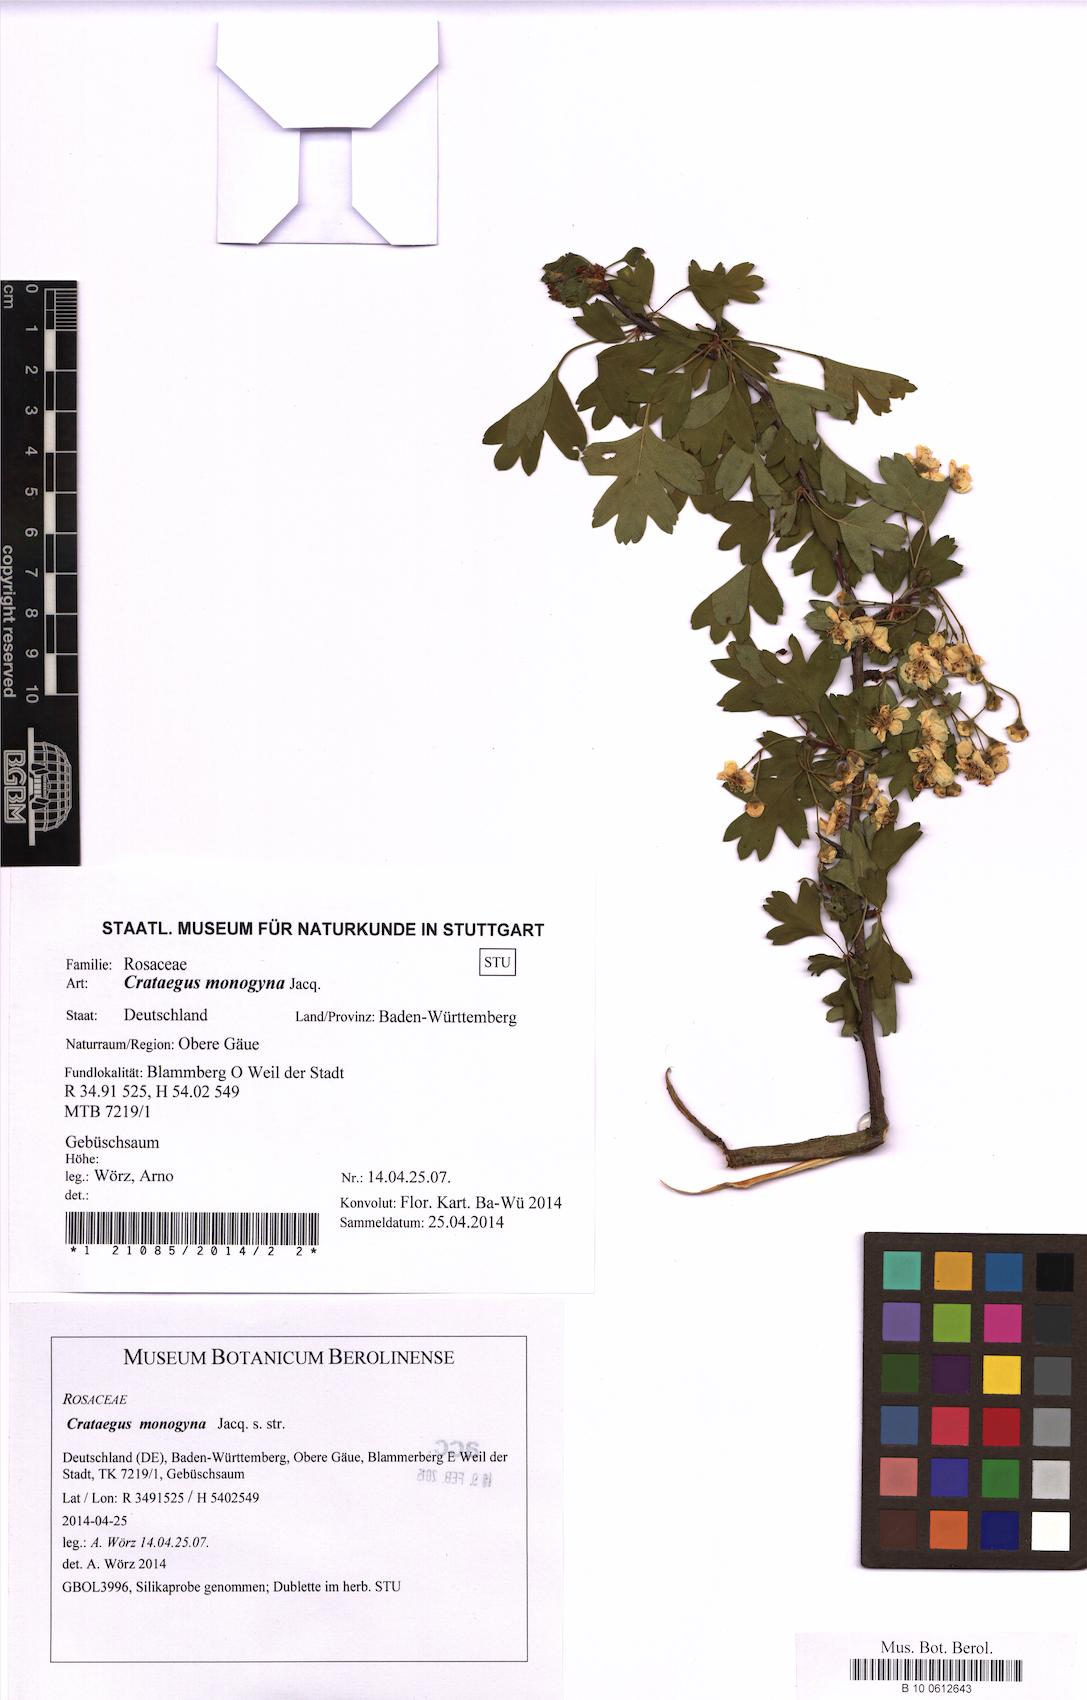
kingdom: Plantae
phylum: Tracheophyta
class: Magnoliopsida
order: Rosales
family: Rosaceae
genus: Crataegus
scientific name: Crataegus monogyna
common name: Hawthorn
